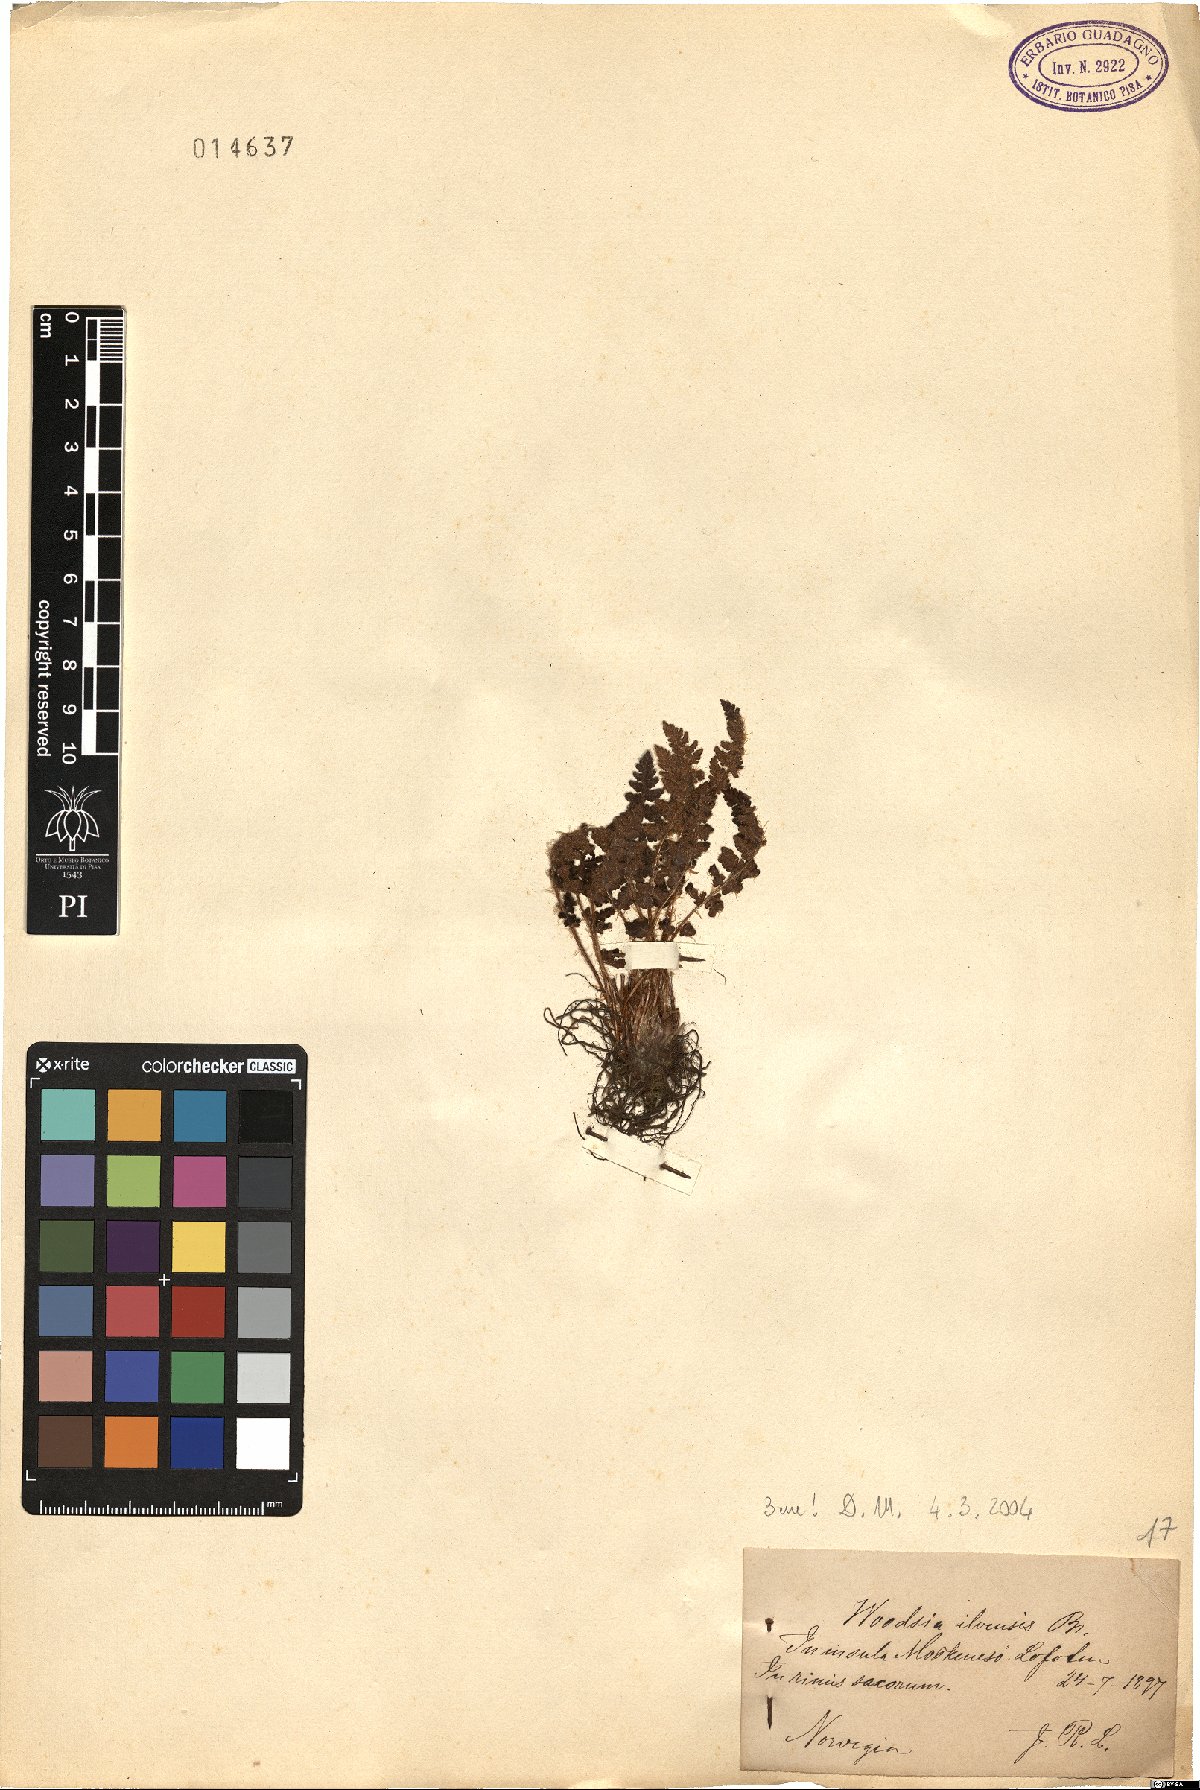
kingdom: Plantae
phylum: Tracheophyta
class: Polypodiopsida
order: Polypodiales
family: Woodsiaceae
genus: Woodsia
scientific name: Woodsia ilvensis
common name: Fragrant woodsia
